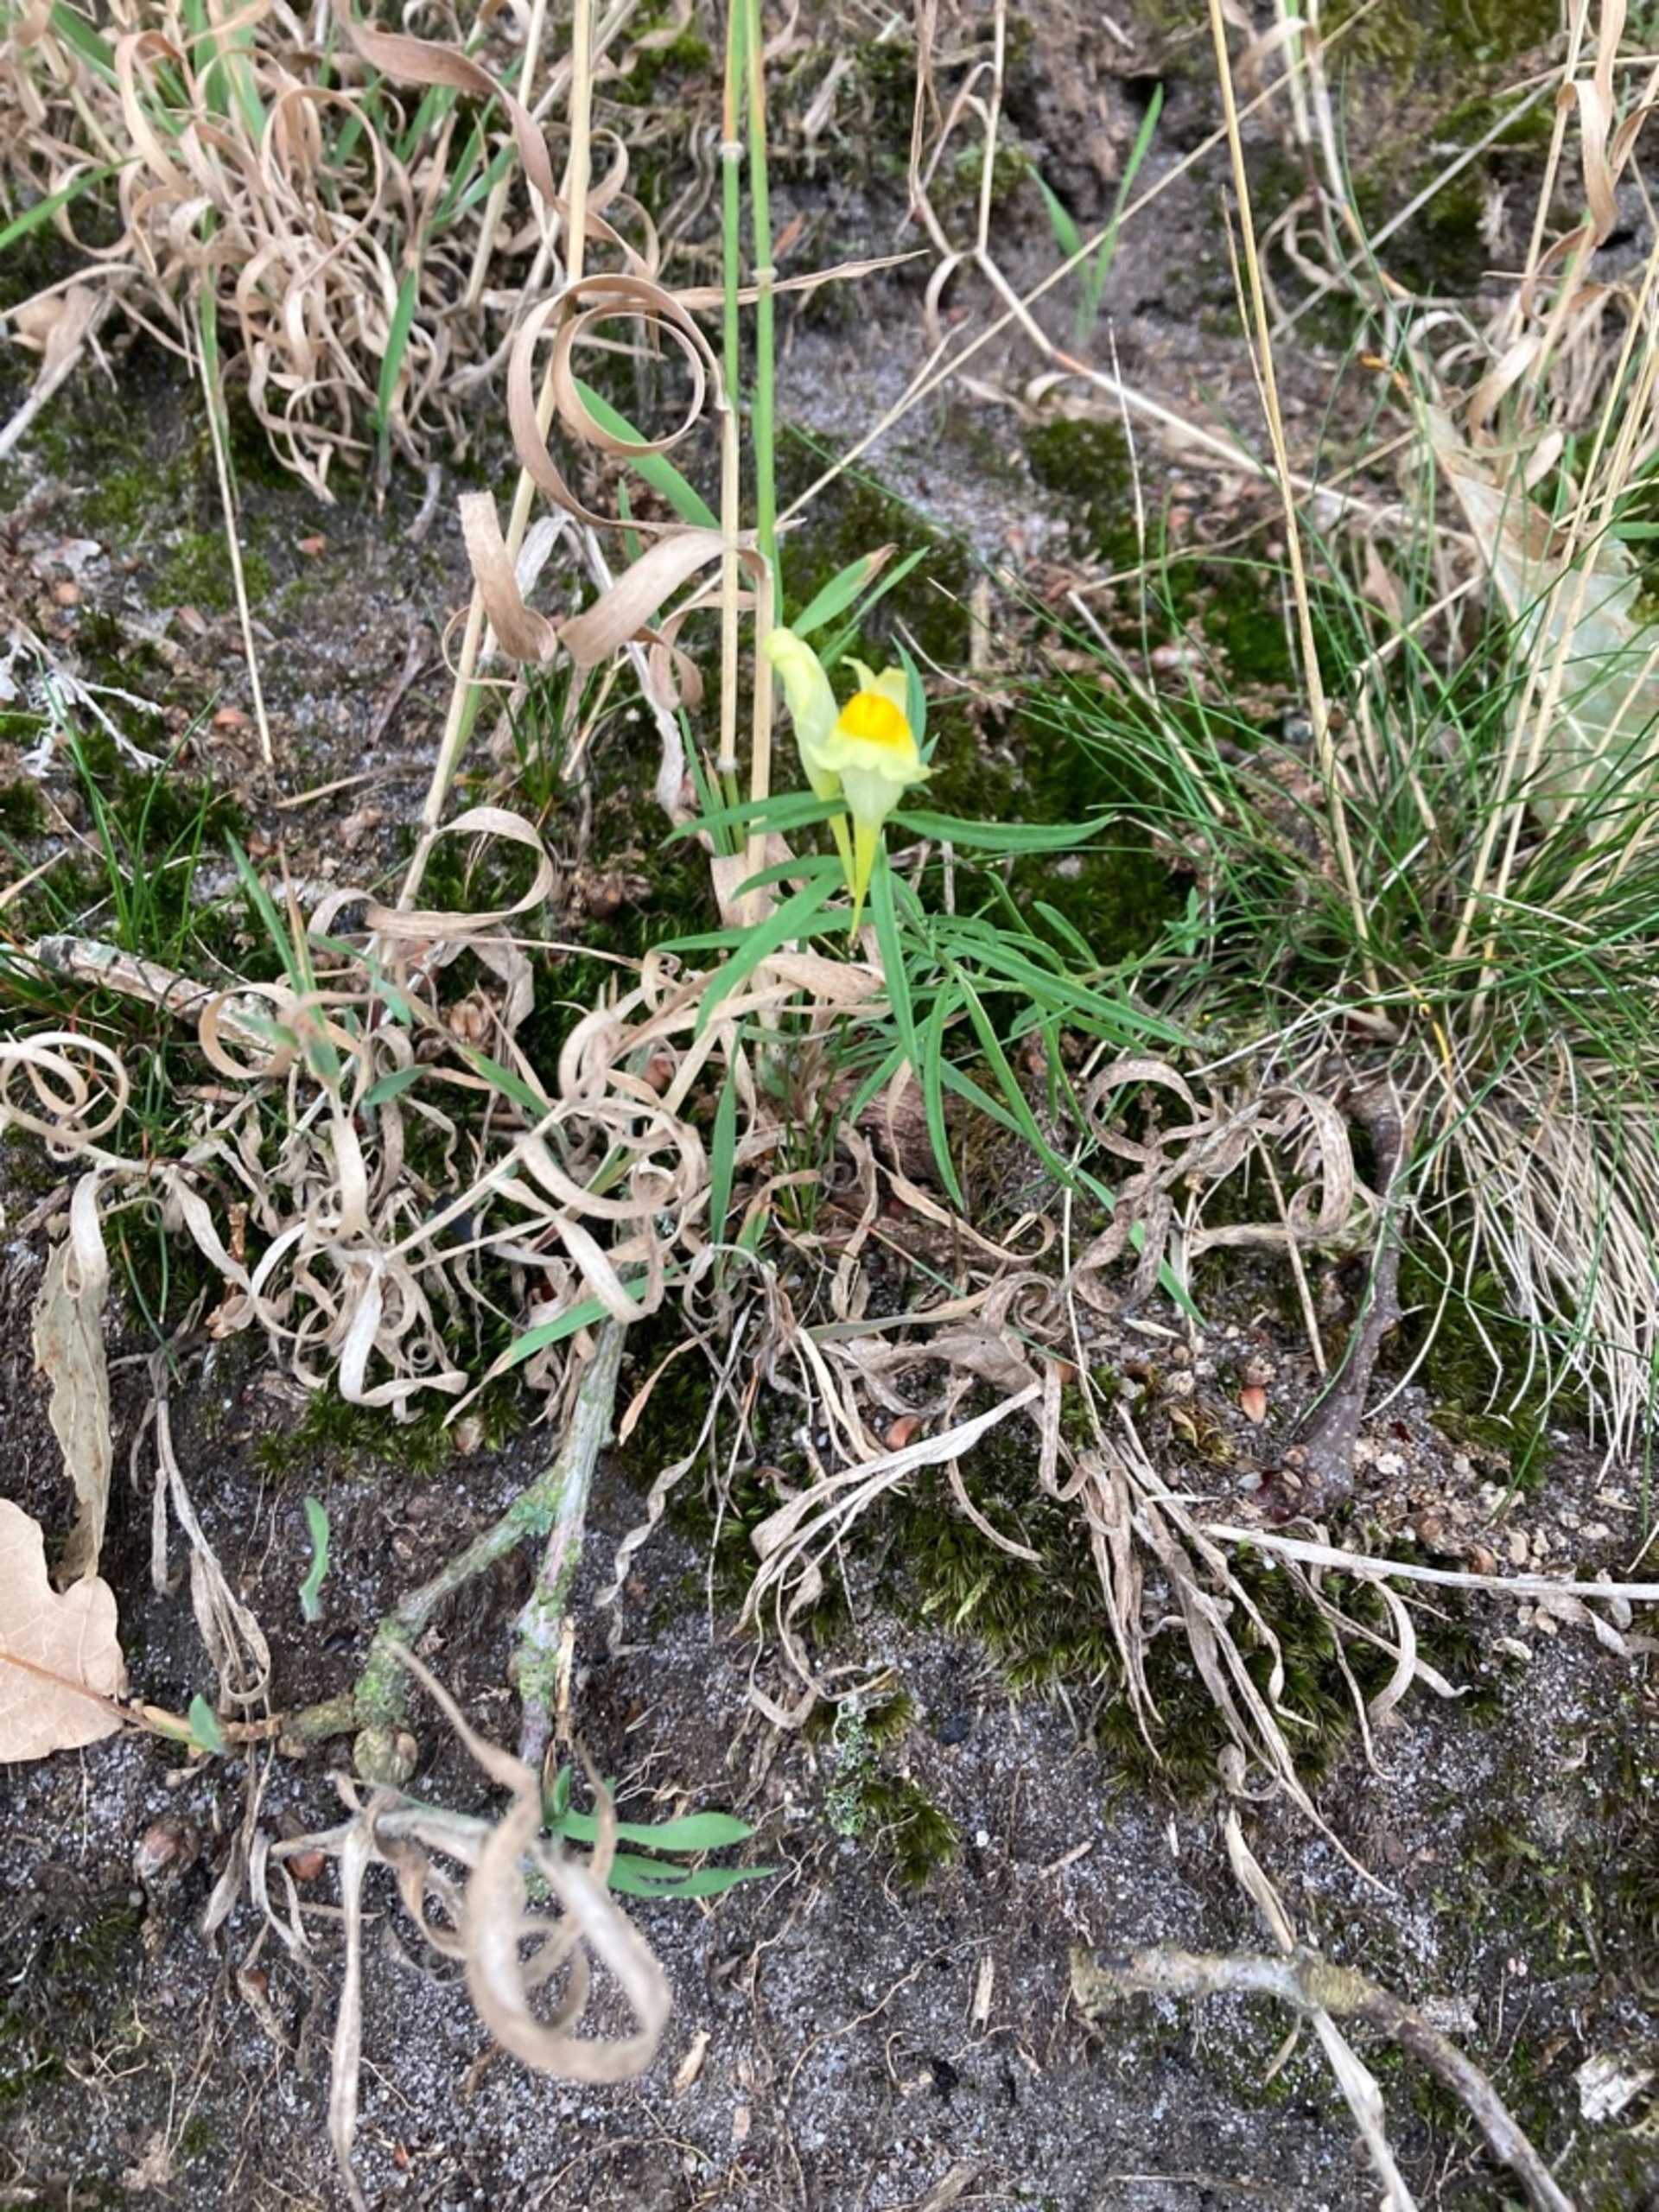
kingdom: Plantae
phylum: Tracheophyta
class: Magnoliopsida
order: Lamiales
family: Plantaginaceae
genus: Linaria
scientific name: Linaria vulgaris
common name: Almindelig torskemund
